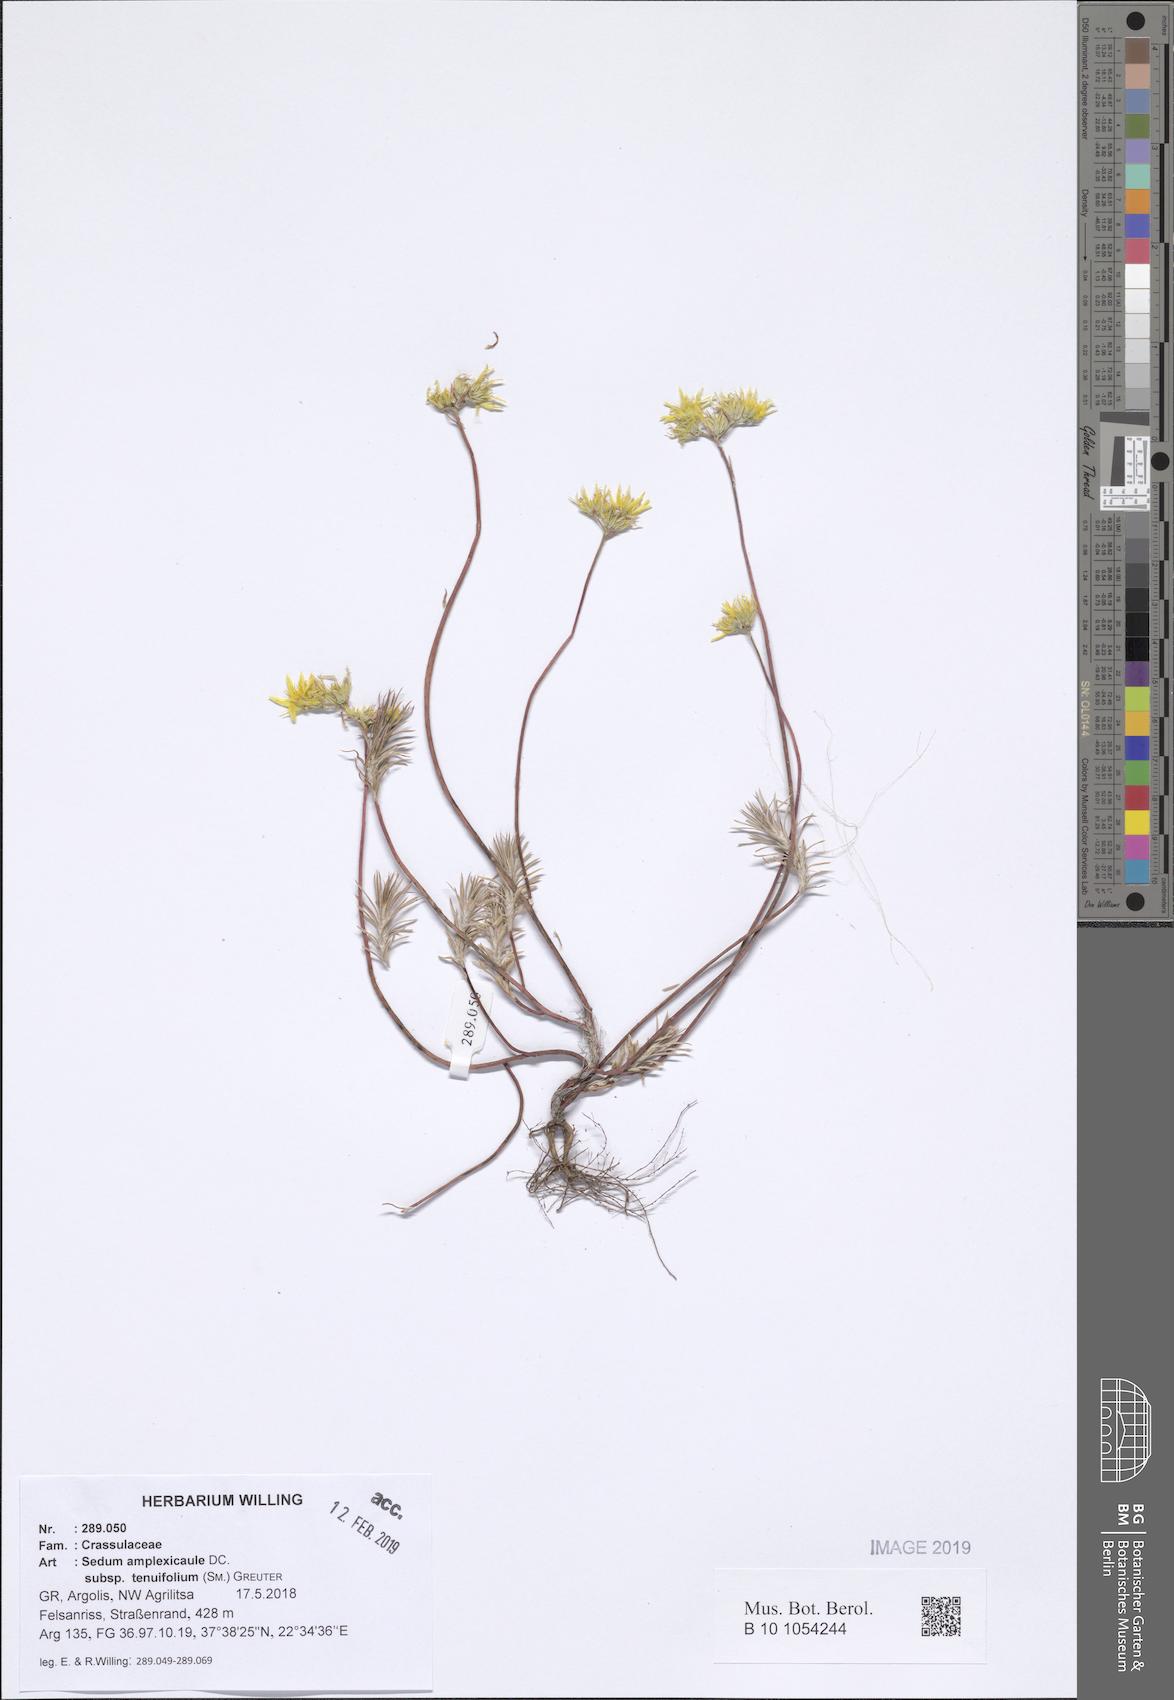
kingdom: Plantae
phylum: Tracheophyta
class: Magnoliopsida
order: Saxifragales
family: Crassulaceae
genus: Petrosedum
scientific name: Petrosedum tenuifolium
